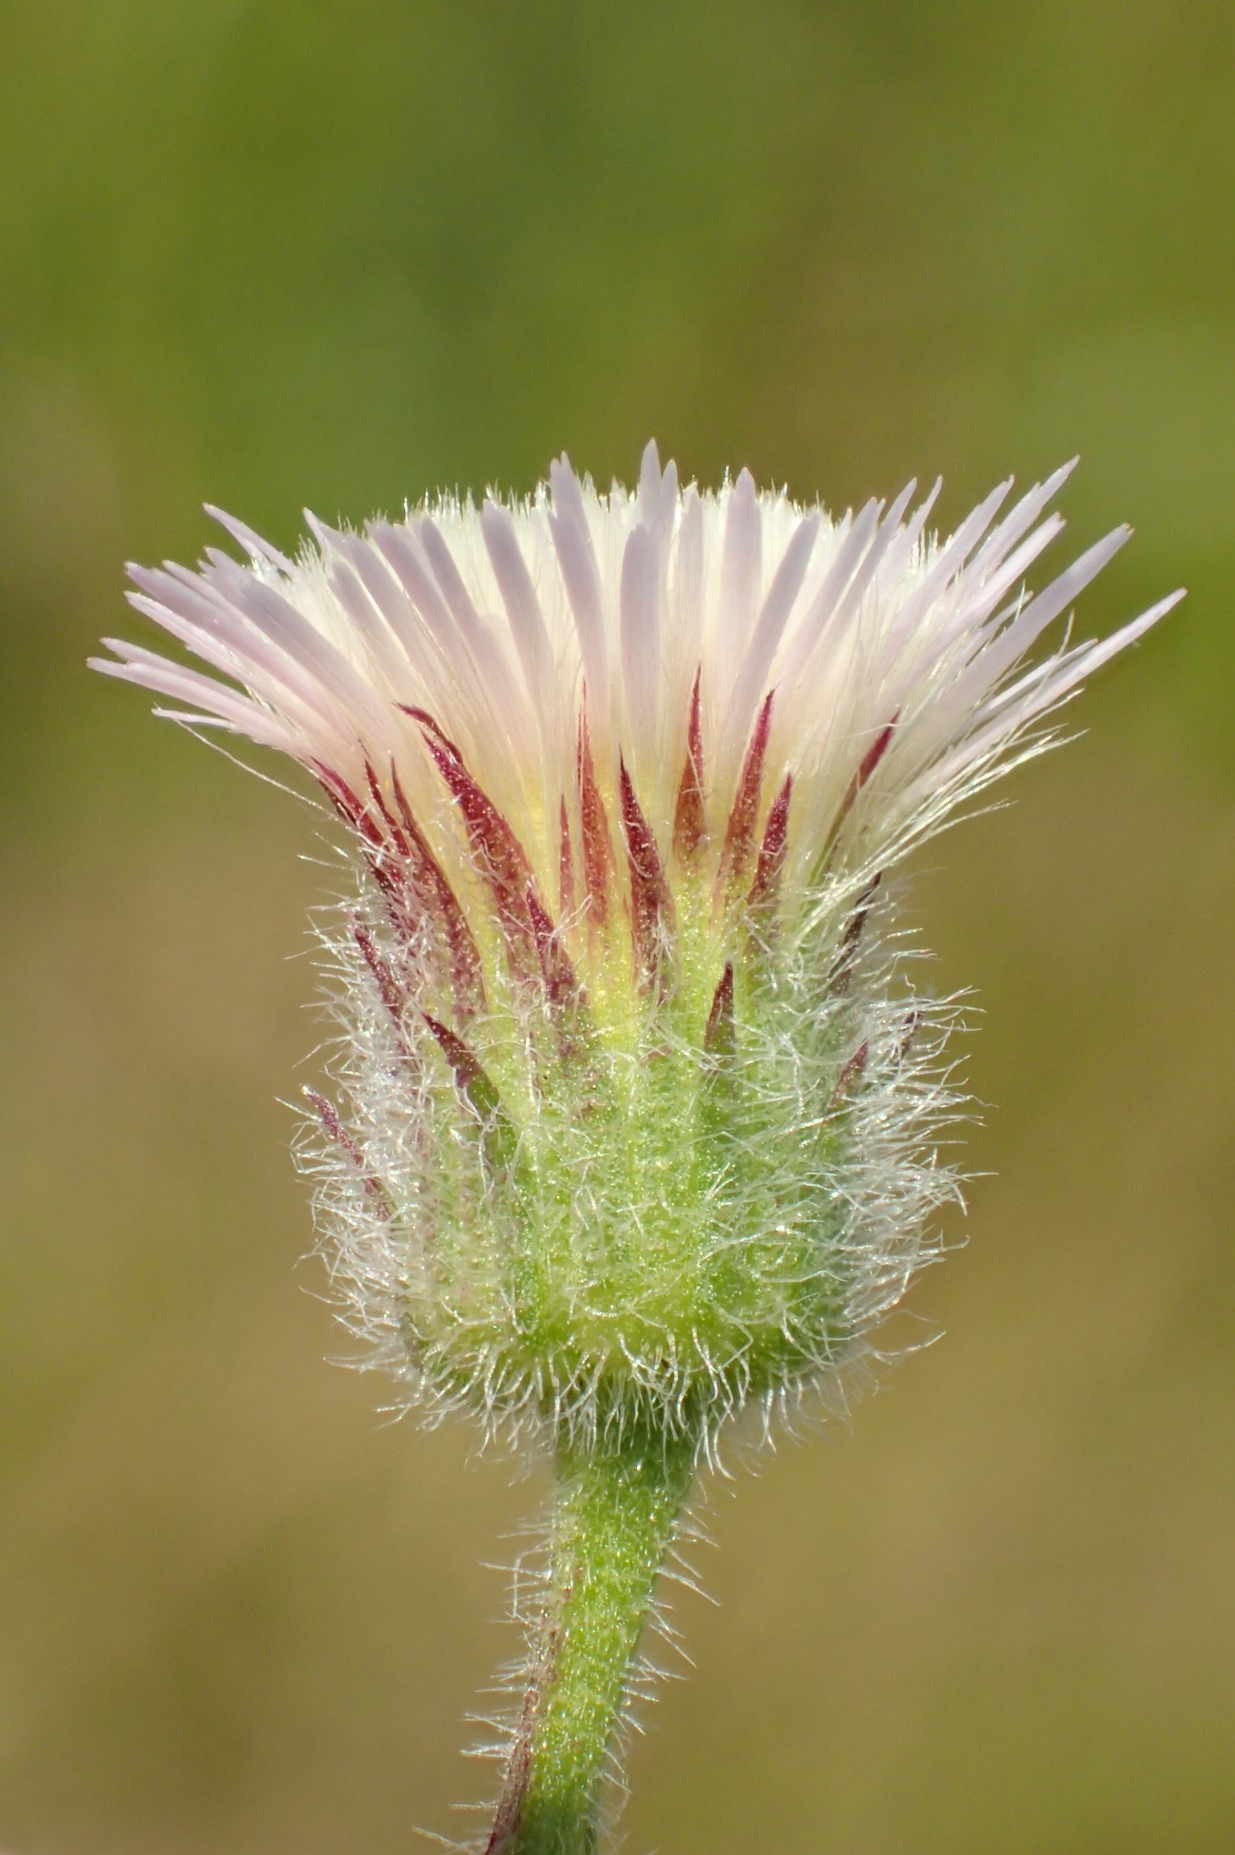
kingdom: Plantae
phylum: Tracheophyta
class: Magnoliopsida
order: Asterales
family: Asteraceae
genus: Erigeron
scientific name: Erigeron acris
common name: Bitter bakkestjerne
